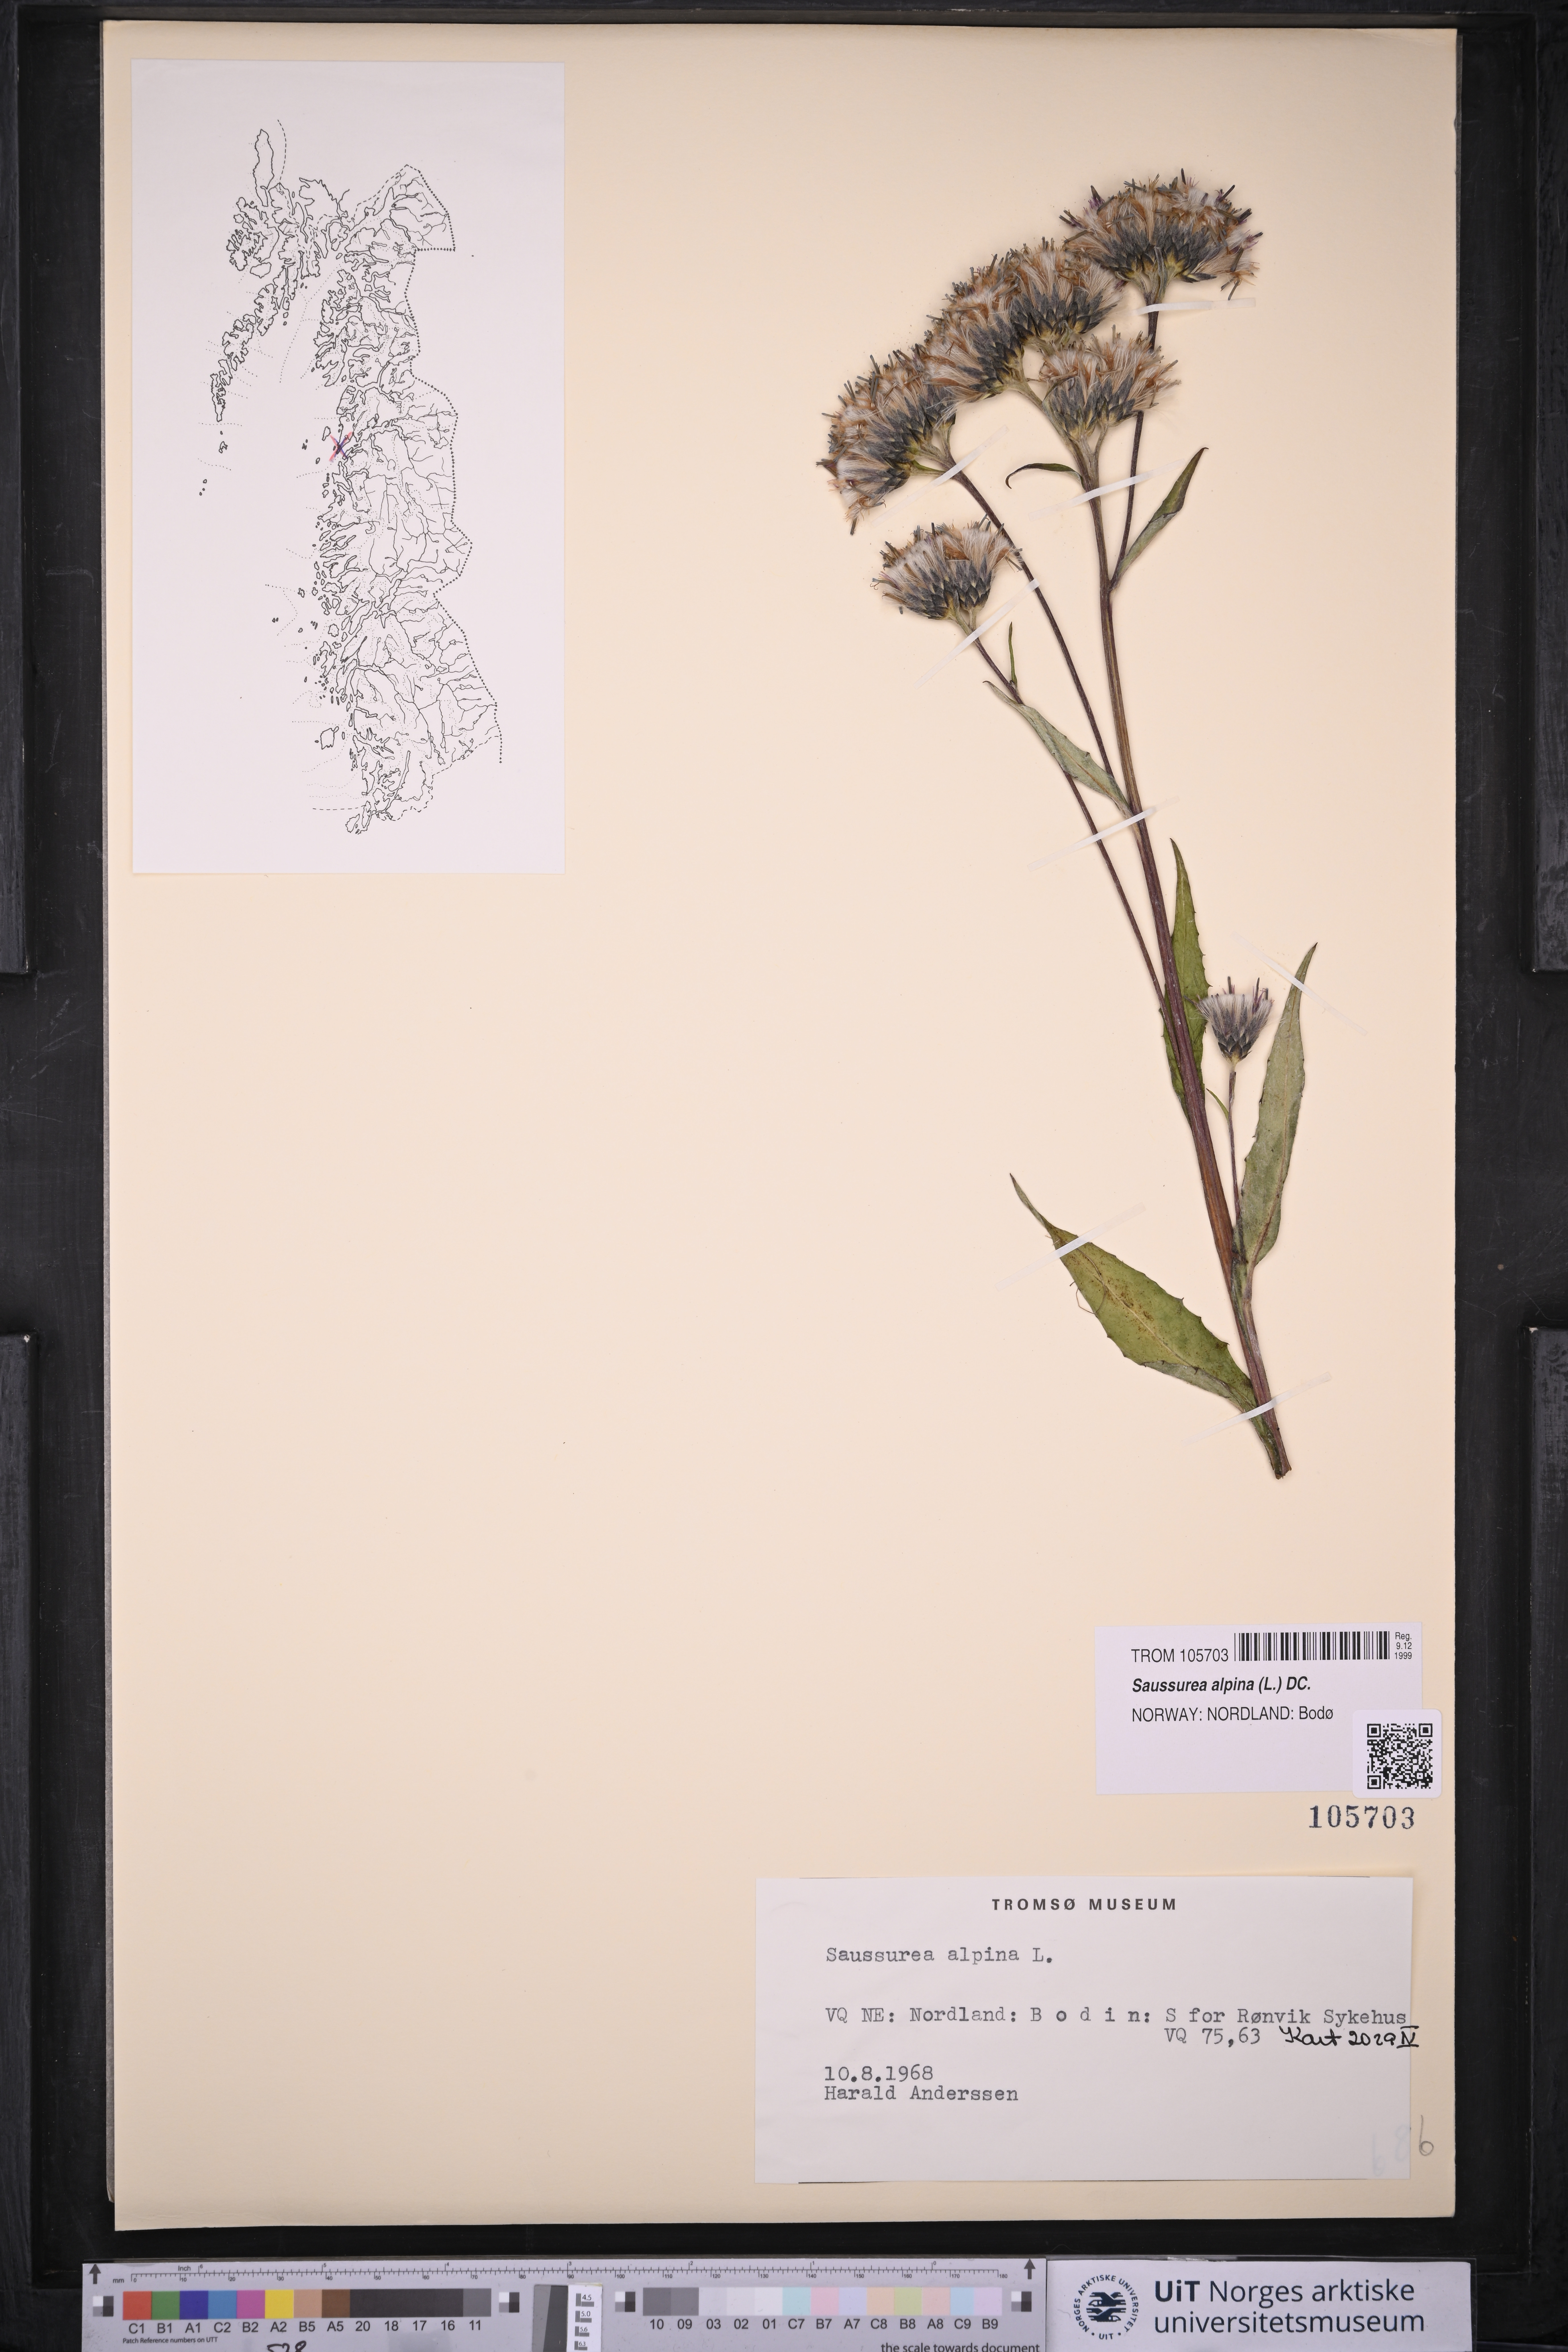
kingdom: Plantae
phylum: Tracheophyta
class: Magnoliopsida
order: Asterales
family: Asteraceae
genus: Saussurea
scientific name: Saussurea alpina
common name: Alpine saw-wort
